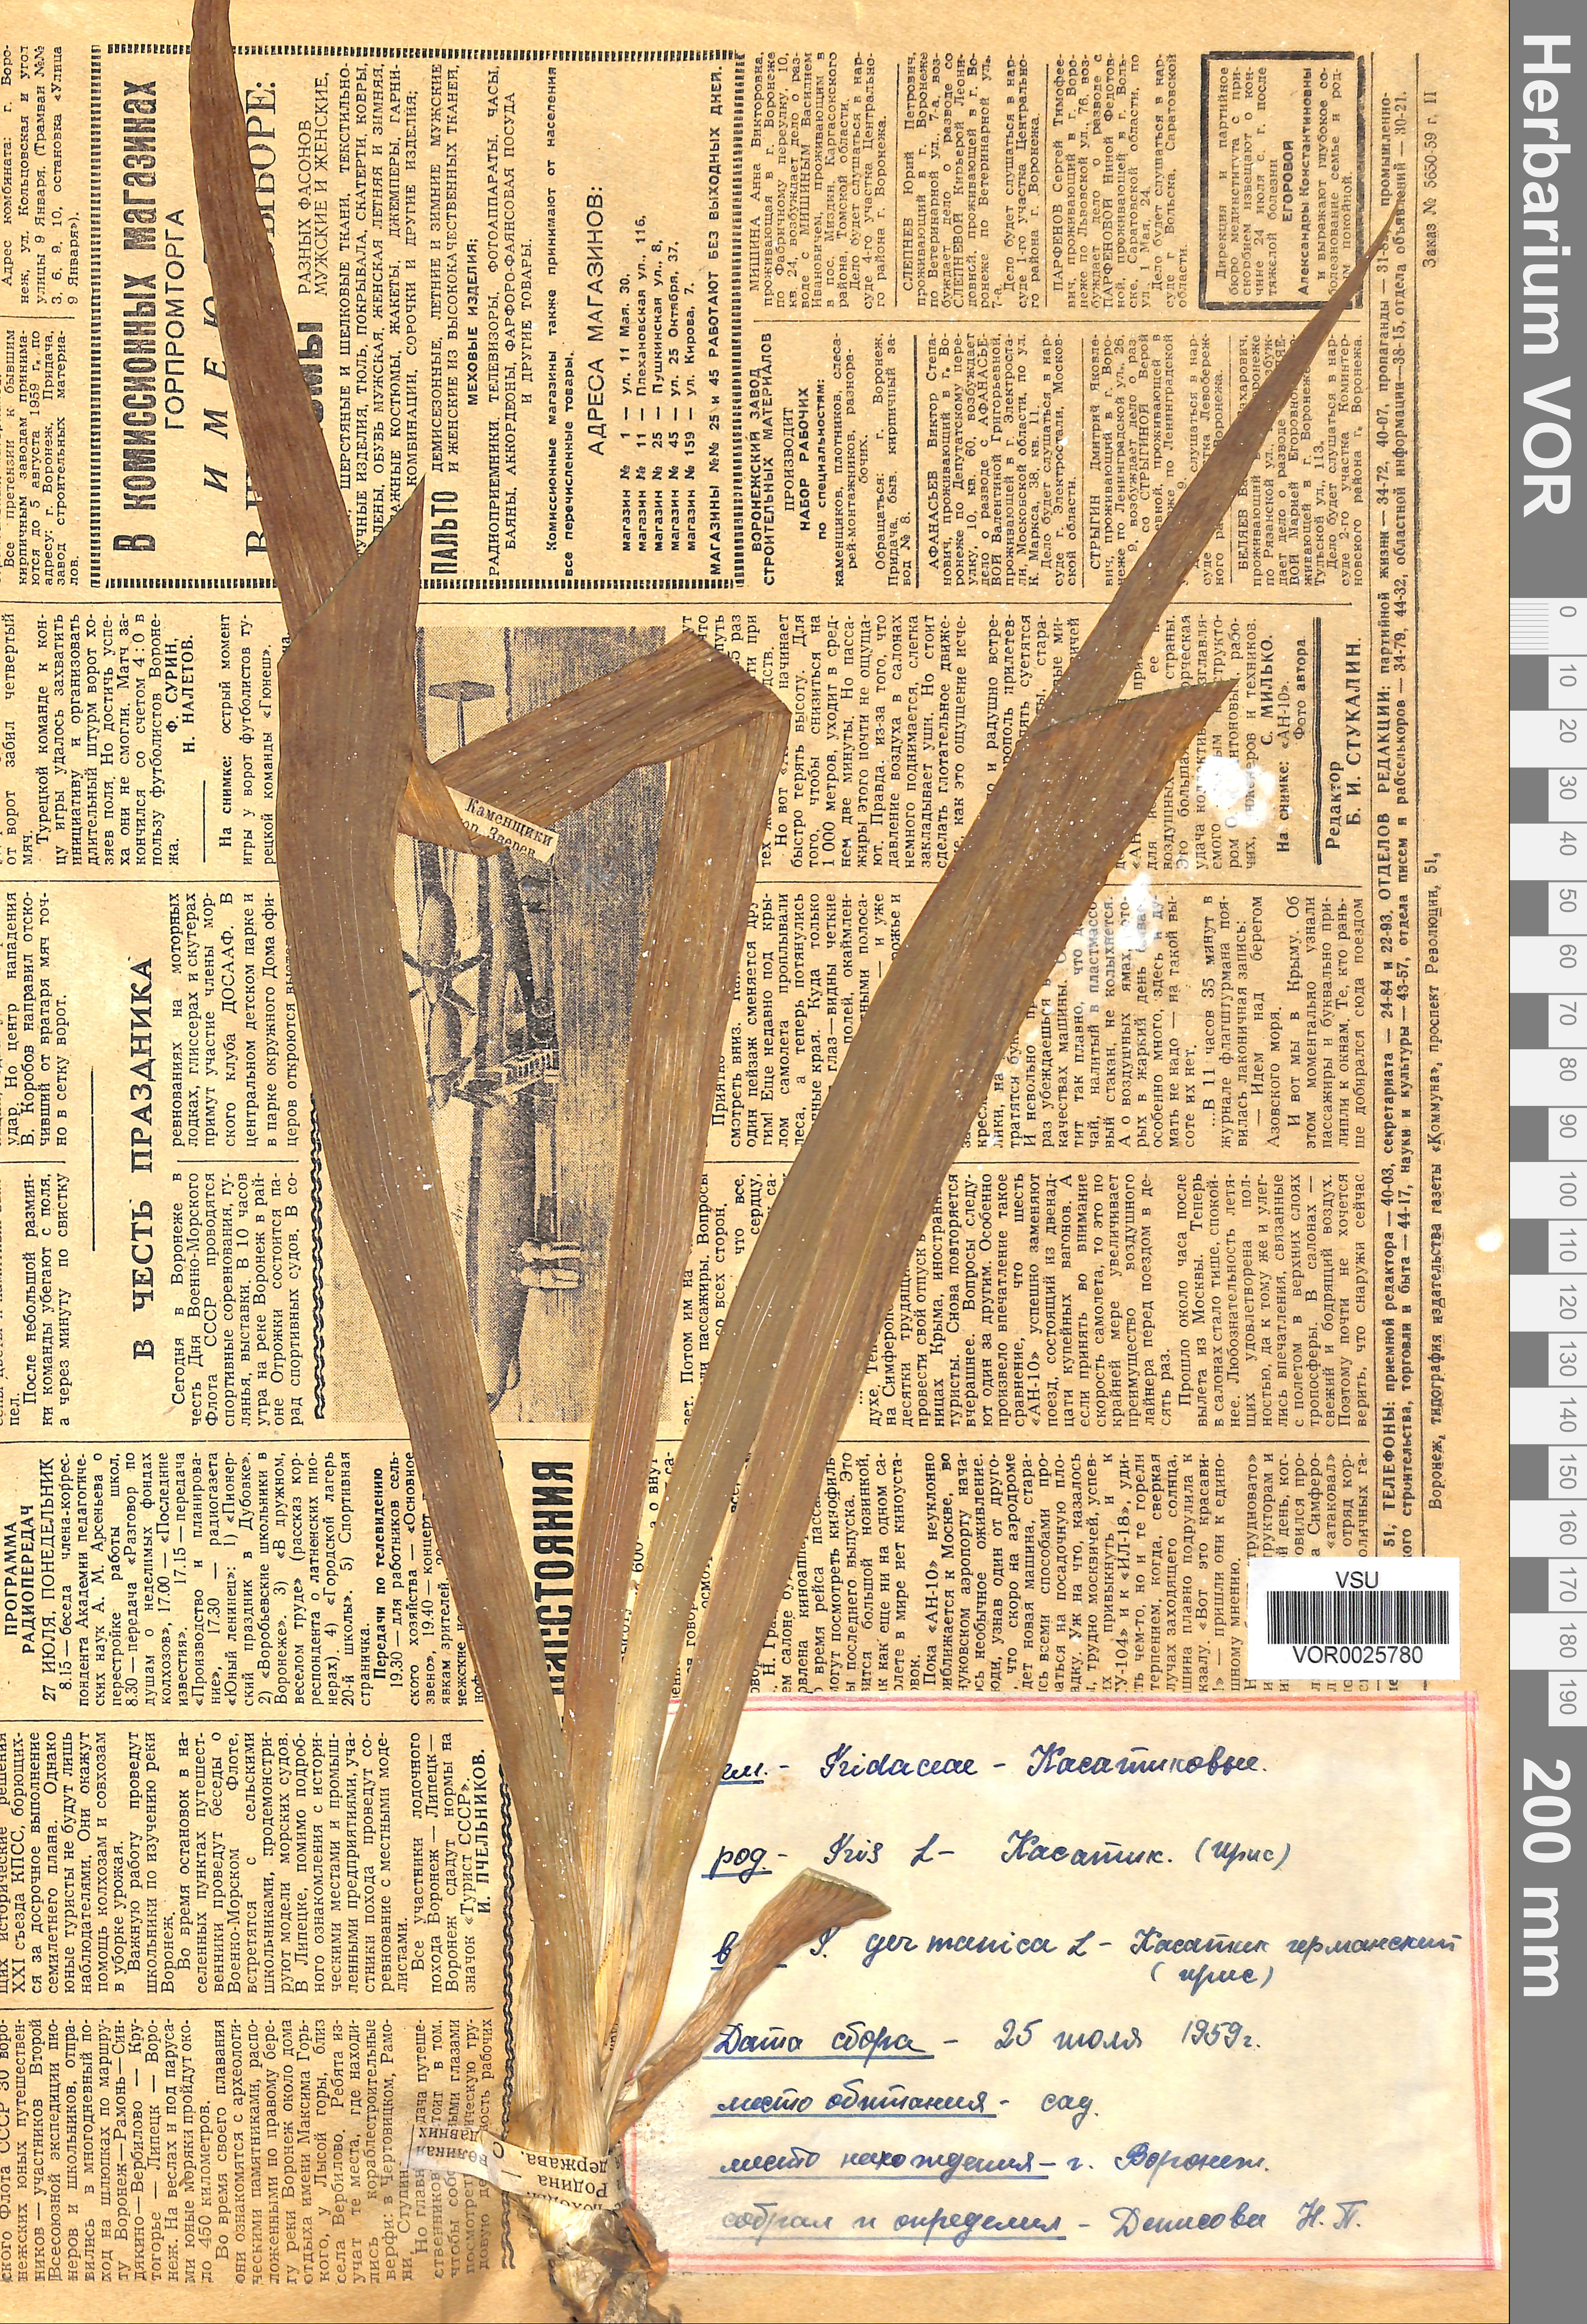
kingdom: Plantae
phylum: Tracheophyta
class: Liliopsida
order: Asparagales
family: Iridaceae
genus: Iris
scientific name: Iris germanica
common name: German iris
